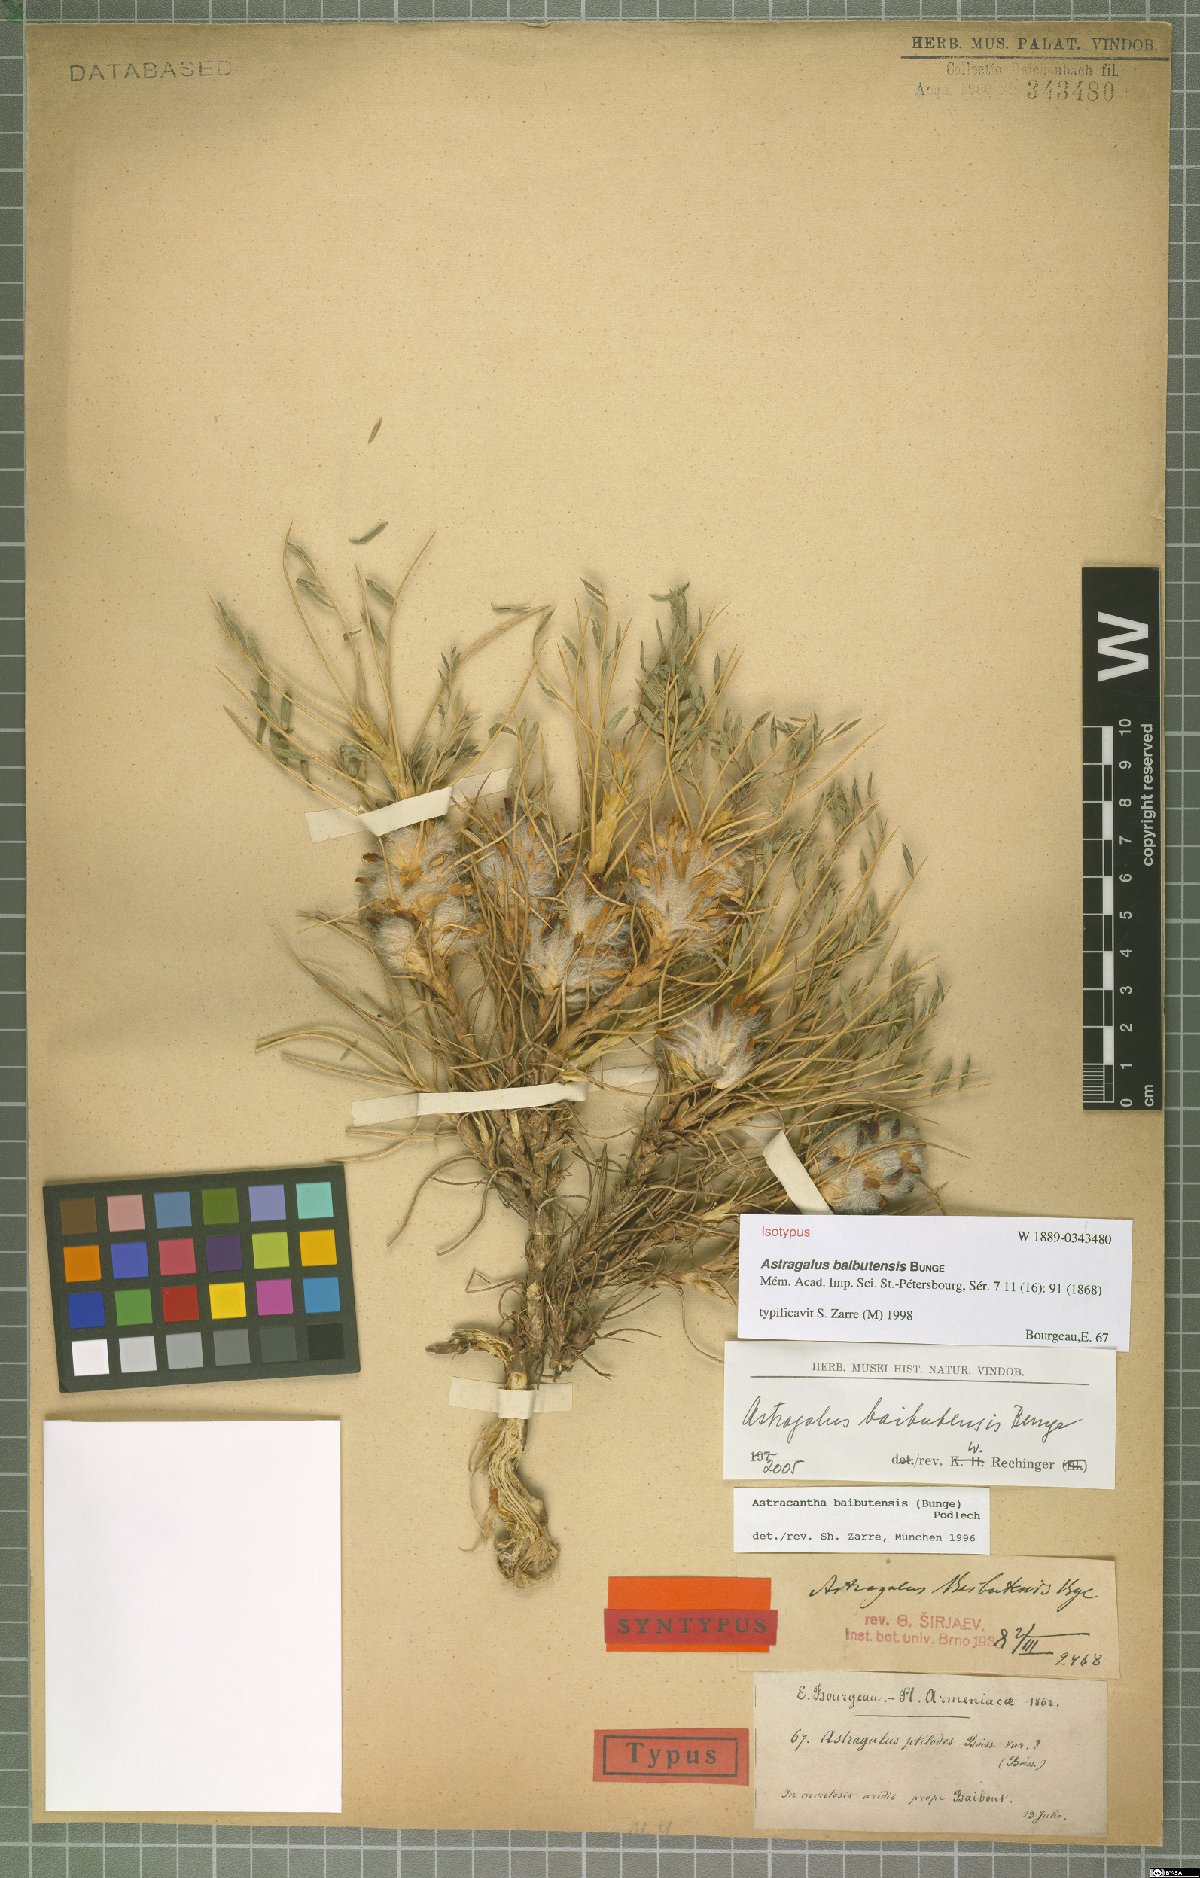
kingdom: Plantae
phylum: Tracheophyta
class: Magnoliopsida
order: Fabales
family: Fabaceae
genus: Astragalus
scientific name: Astragalus baibutensis
